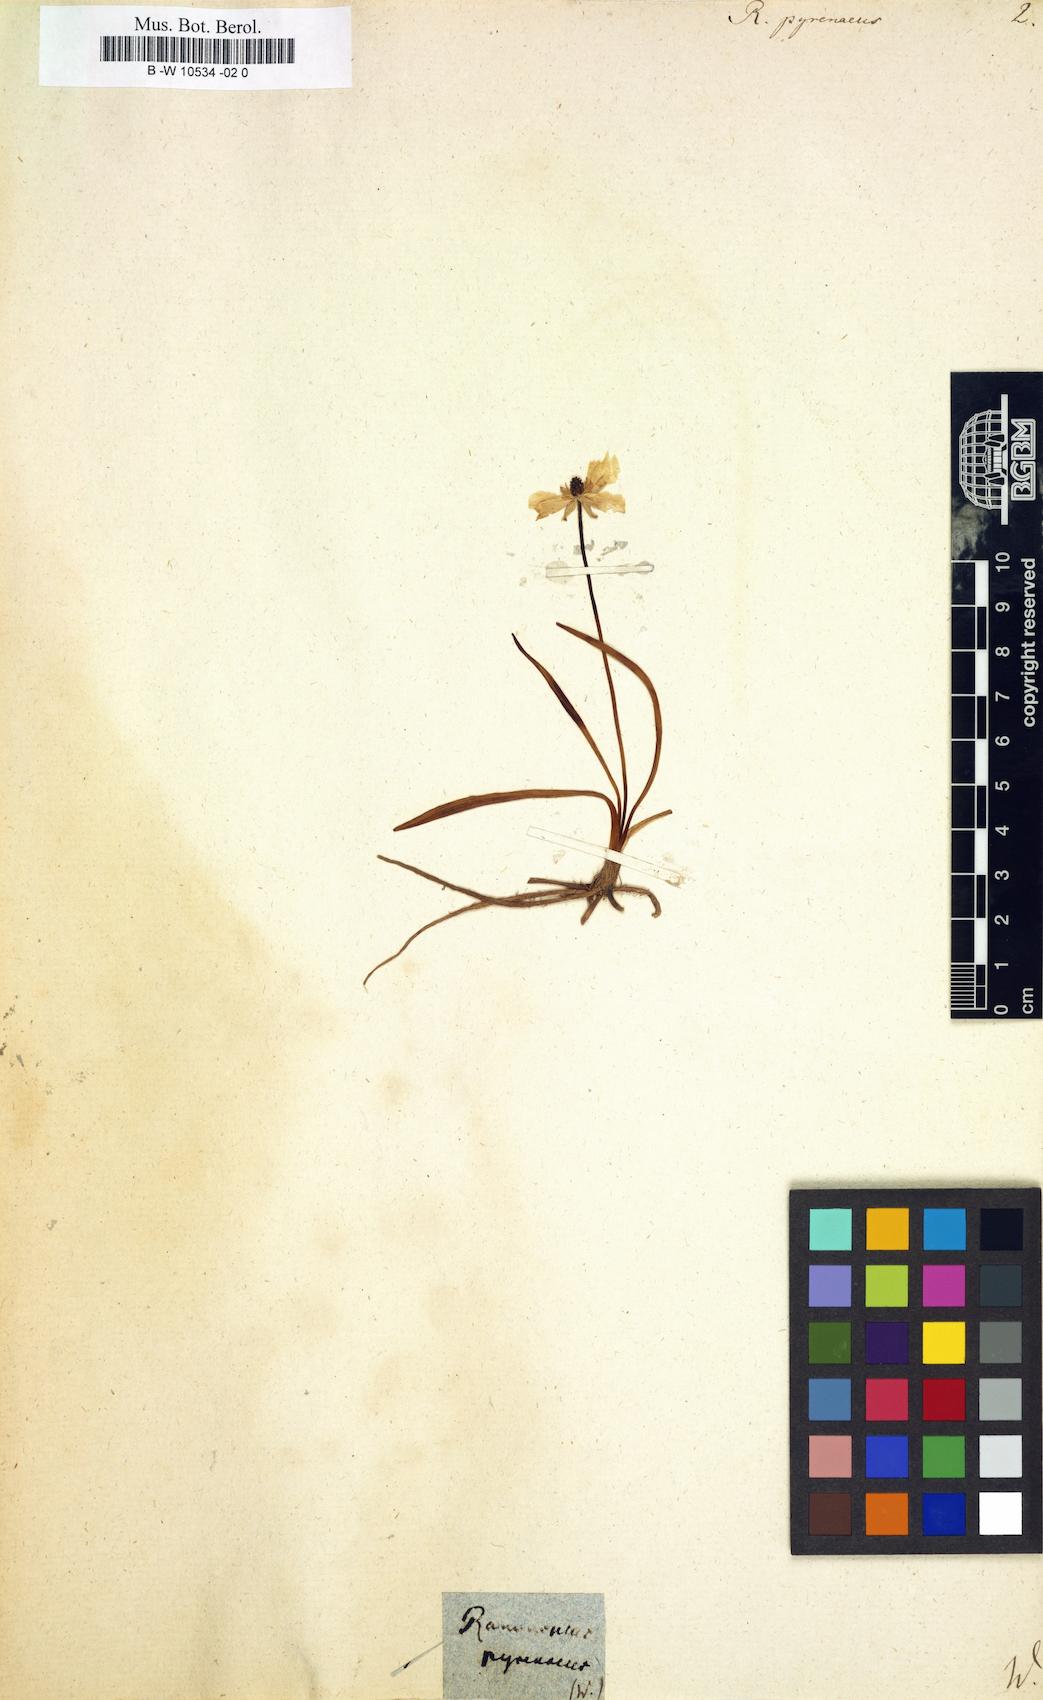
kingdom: Plantae
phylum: Tracheophyta
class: Magnoliopsida
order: Ranunculales
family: Ranunculaceae
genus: Ranunculus
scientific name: Ranunculus pyrenaeus
